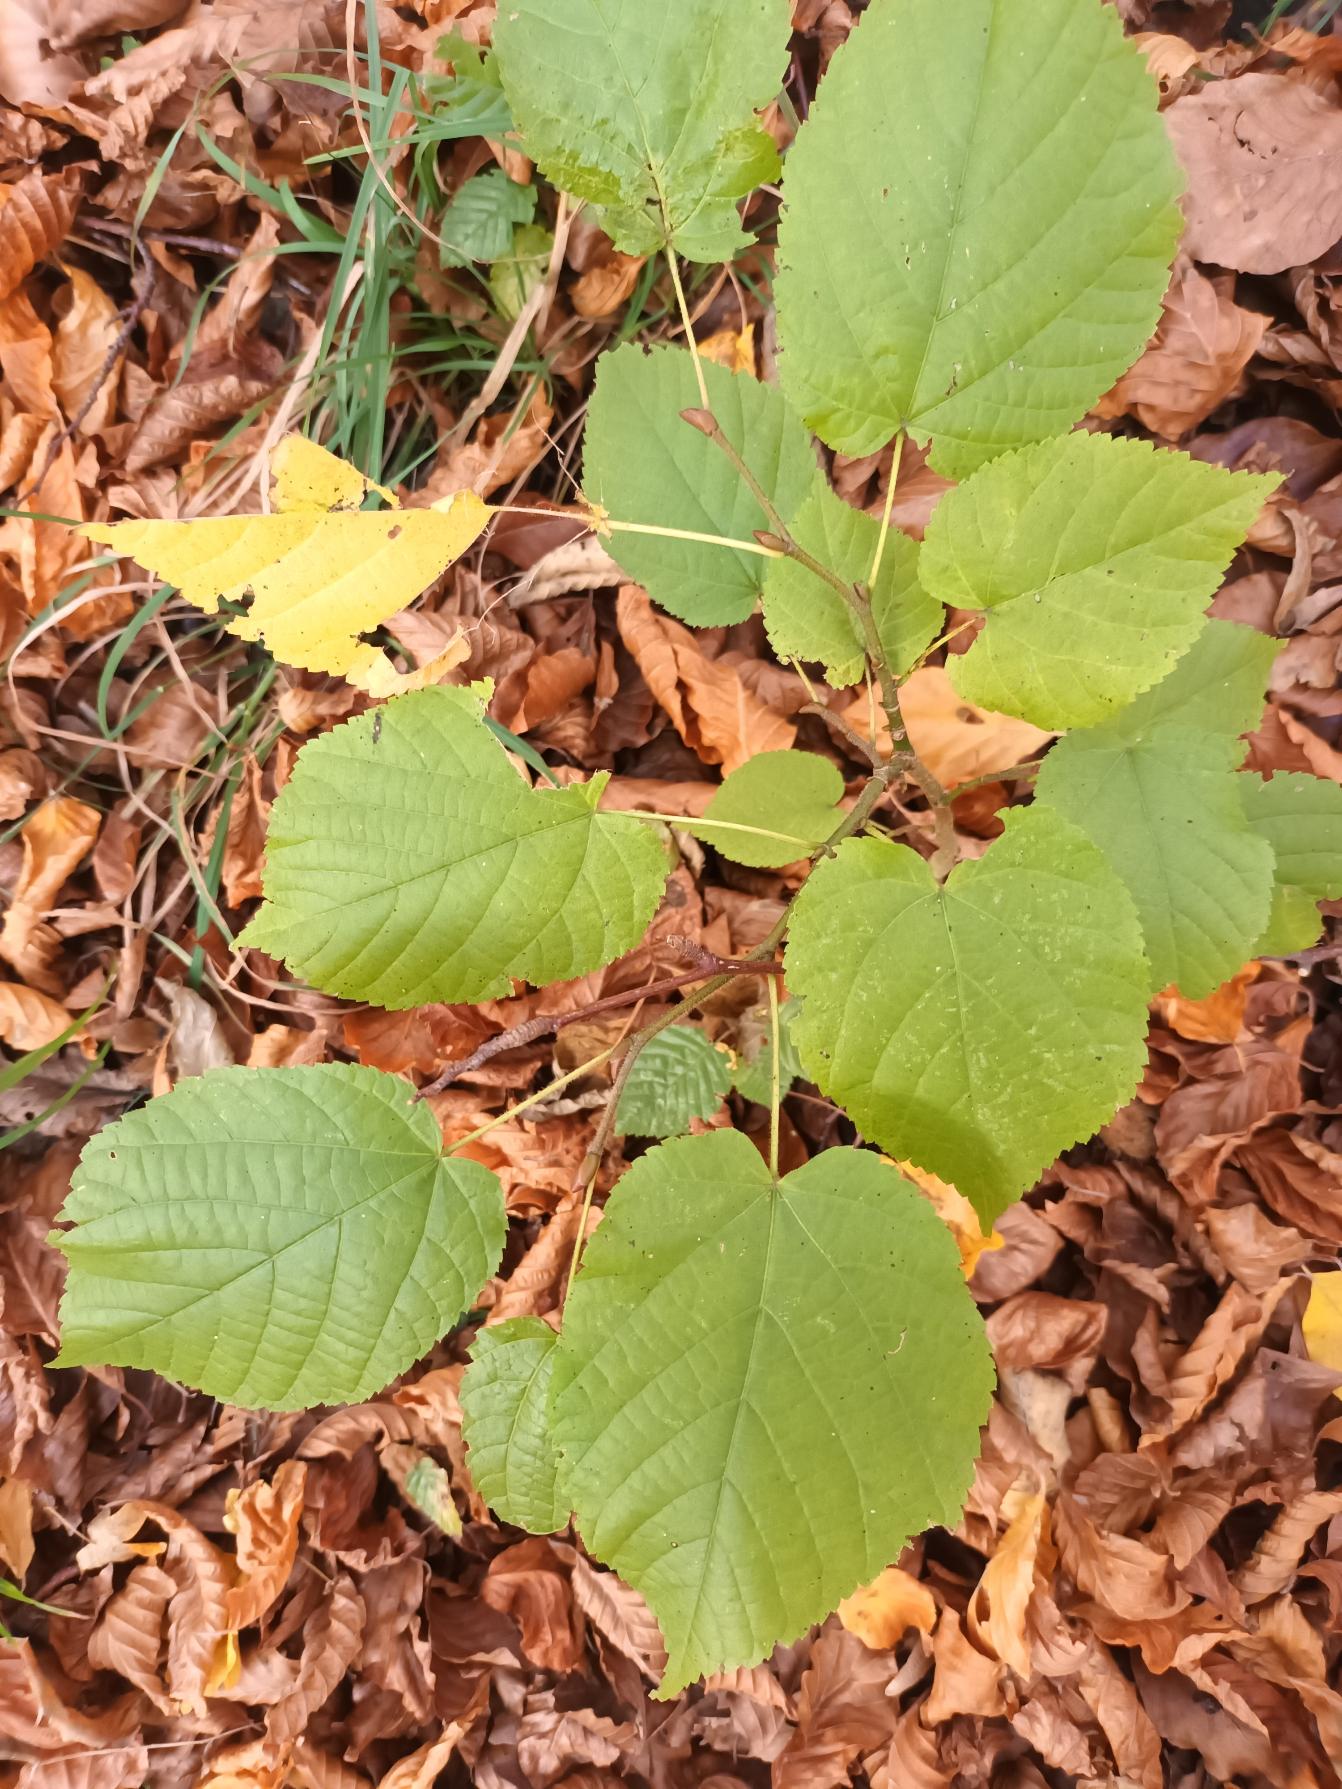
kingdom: Plantae
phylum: Tracheophyta
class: Magnoliopsida
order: Malvales
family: Malvaceae
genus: Tilia
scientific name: Tilia platyphyllos
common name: Storbladet lind
